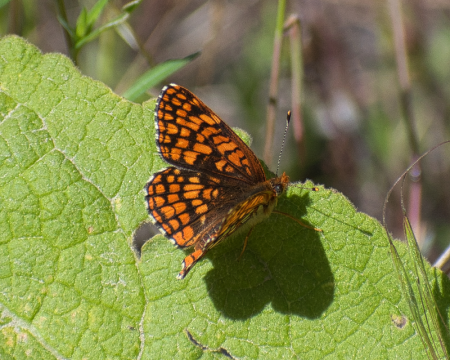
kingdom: Animalia
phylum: Arthropoda
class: Insecta
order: Lepidoptera
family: Nymphalidae
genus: Chlosyne
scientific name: Chlosyne palla
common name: Northern Checkerspot
